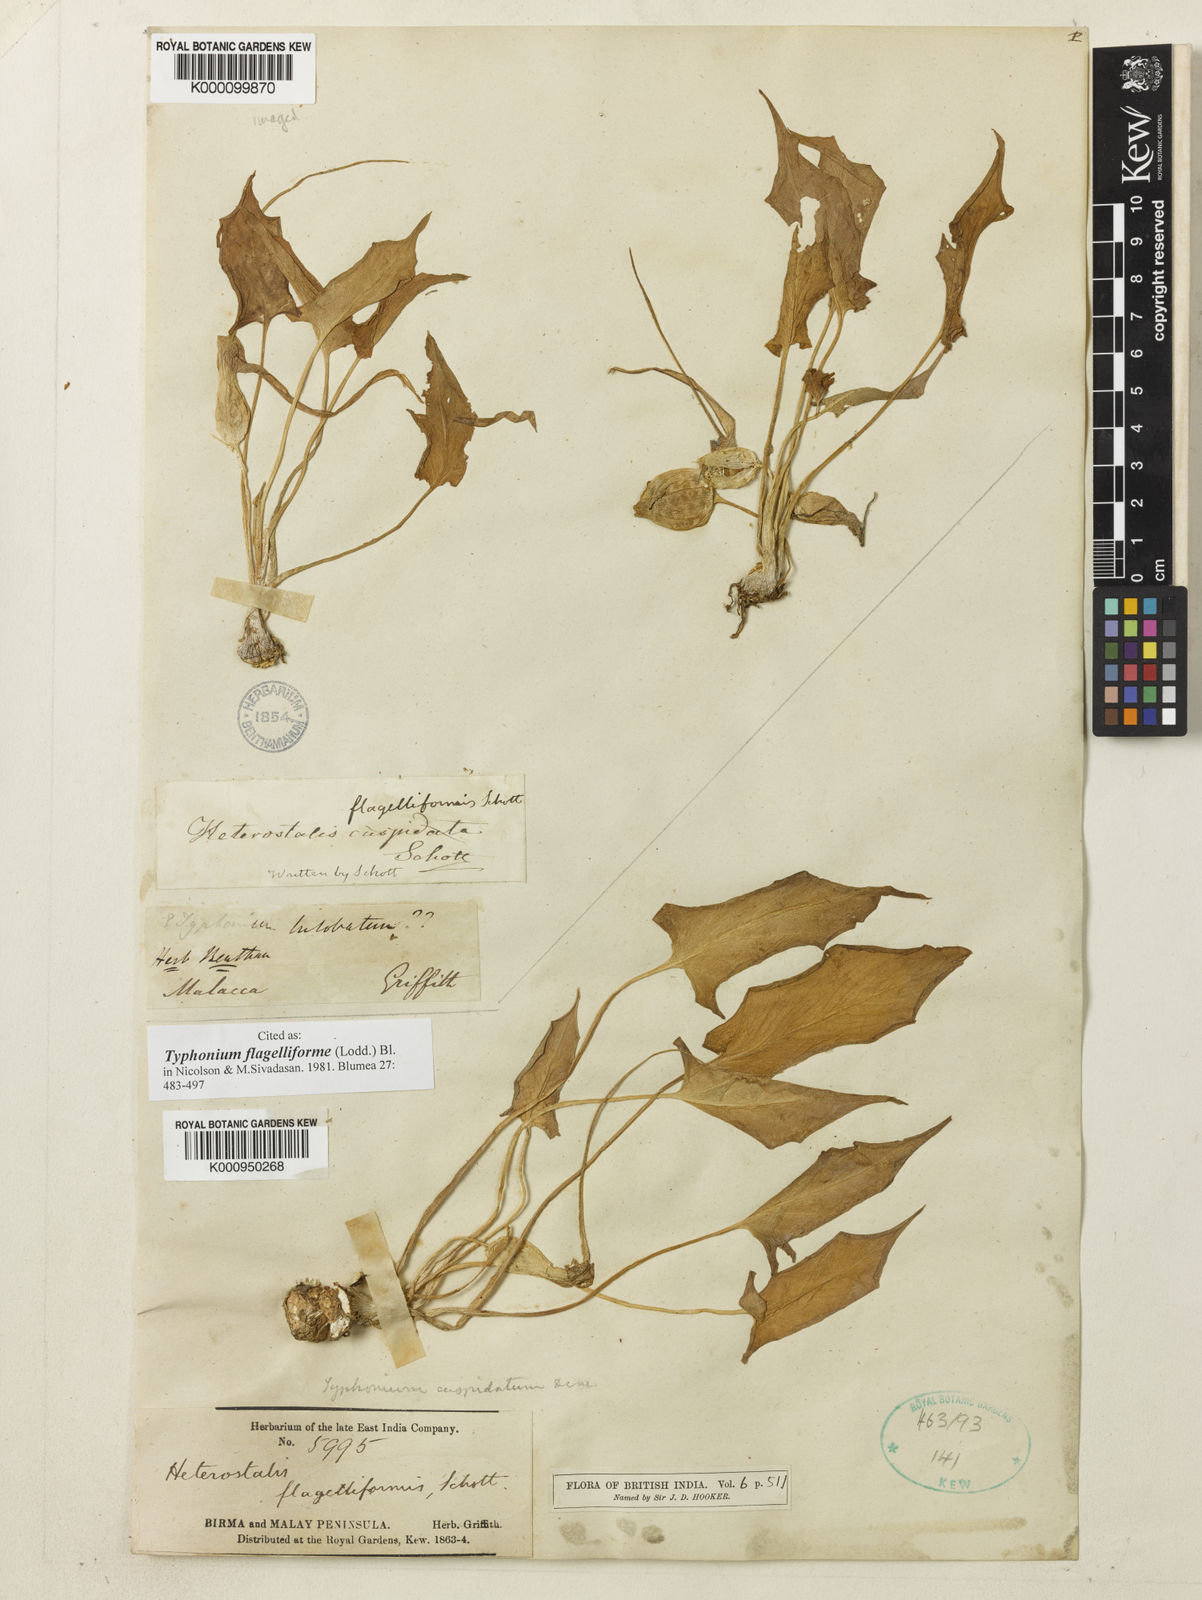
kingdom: Plantae
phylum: Tracheophyta
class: Liliopsida
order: Alismatales
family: Araceae
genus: Typhonium
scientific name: Typhonium flagelliforme
